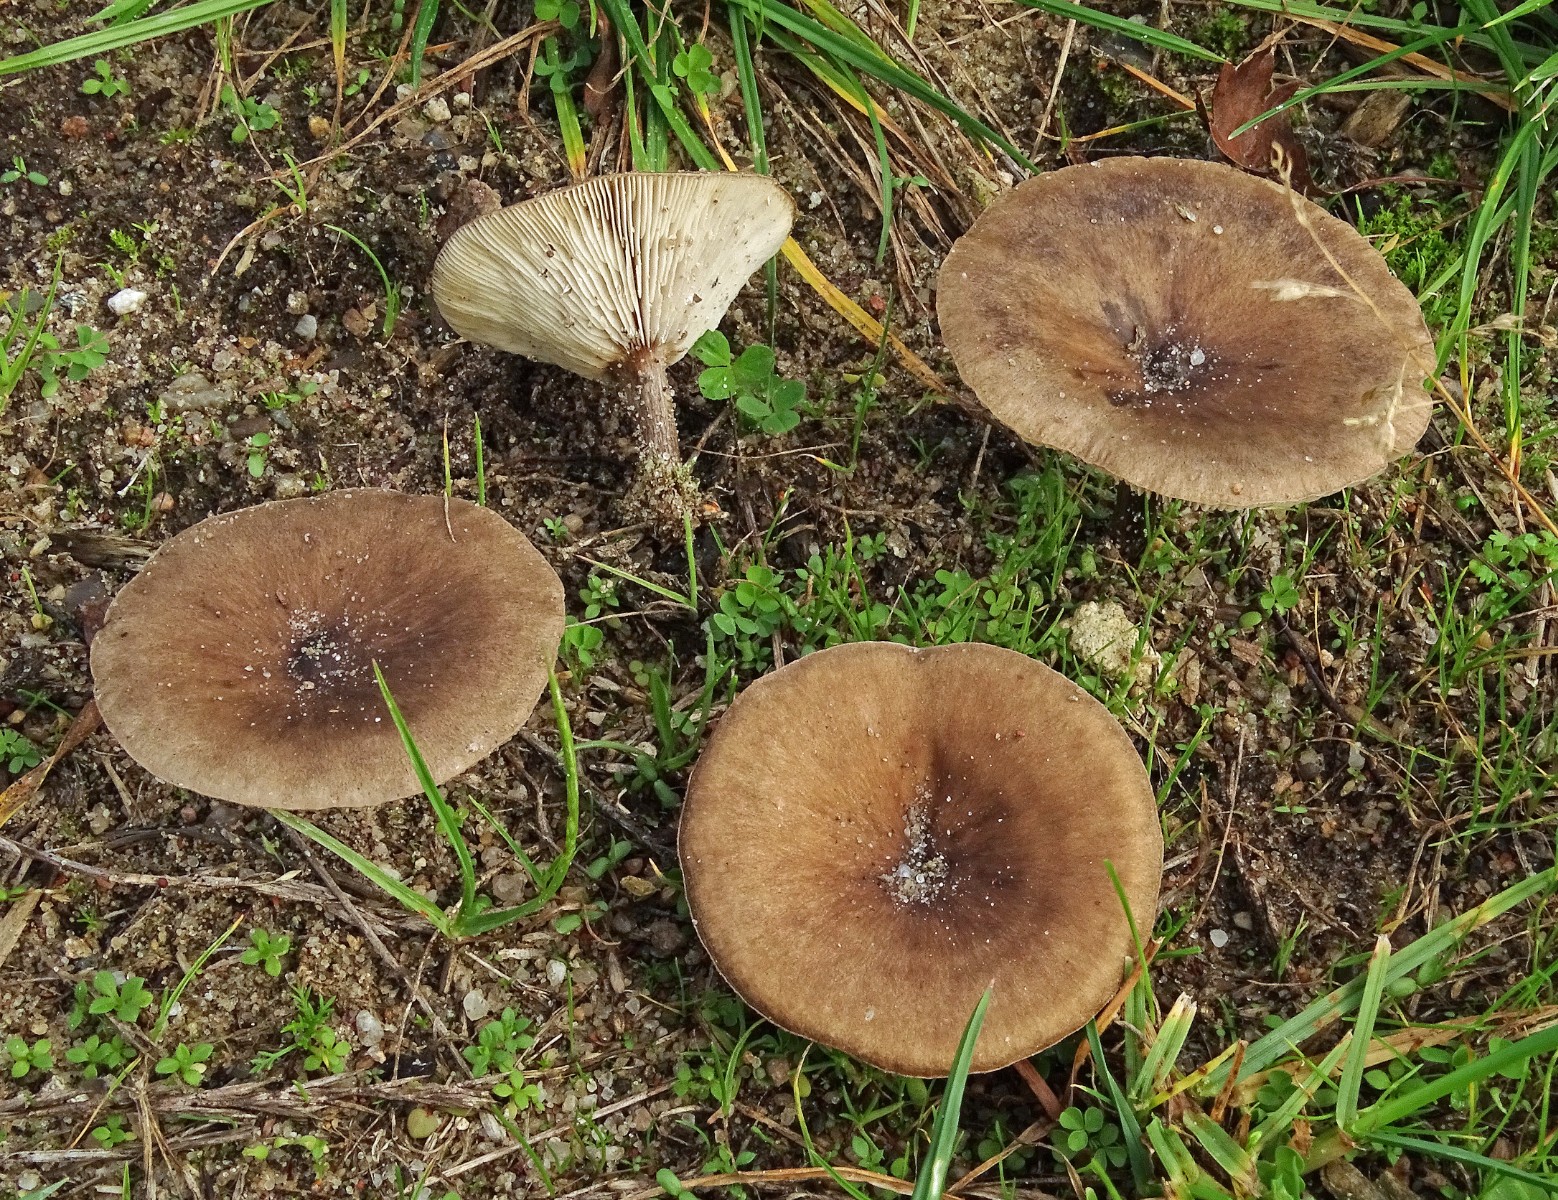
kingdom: Fungi
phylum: Basidiomycota
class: Agaricomycetes
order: Agaricales
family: Tricholomataceae
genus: Melanoleuca
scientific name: Melanoleuca
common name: munkehat
